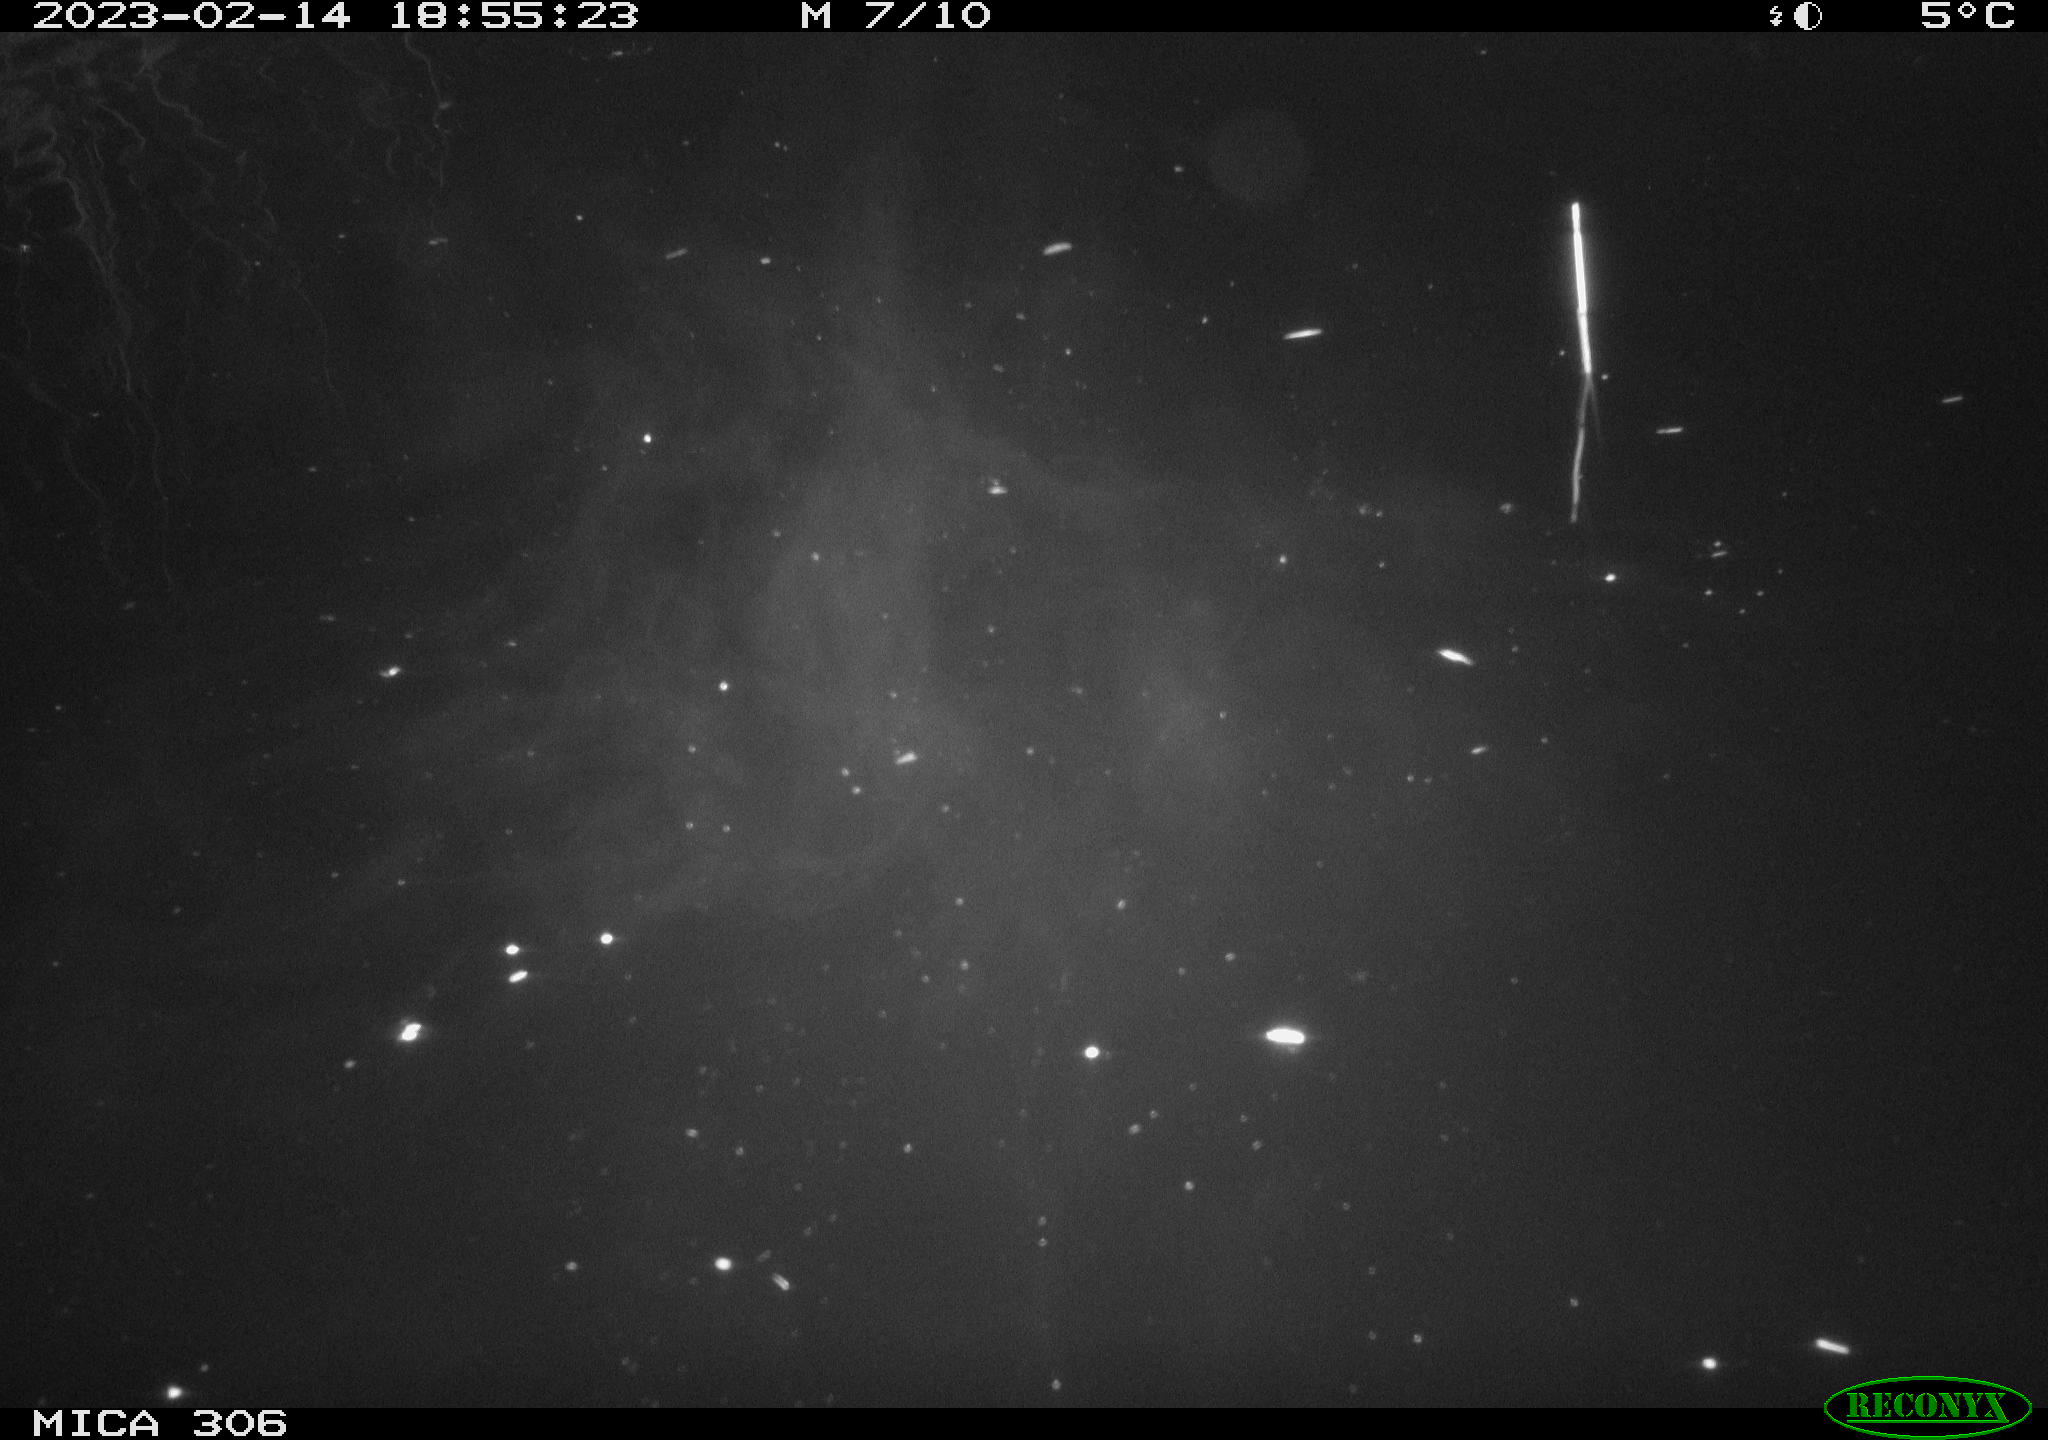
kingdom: Animalia
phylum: Chordata
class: Mammalia
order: Rodentia
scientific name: Rodentia
